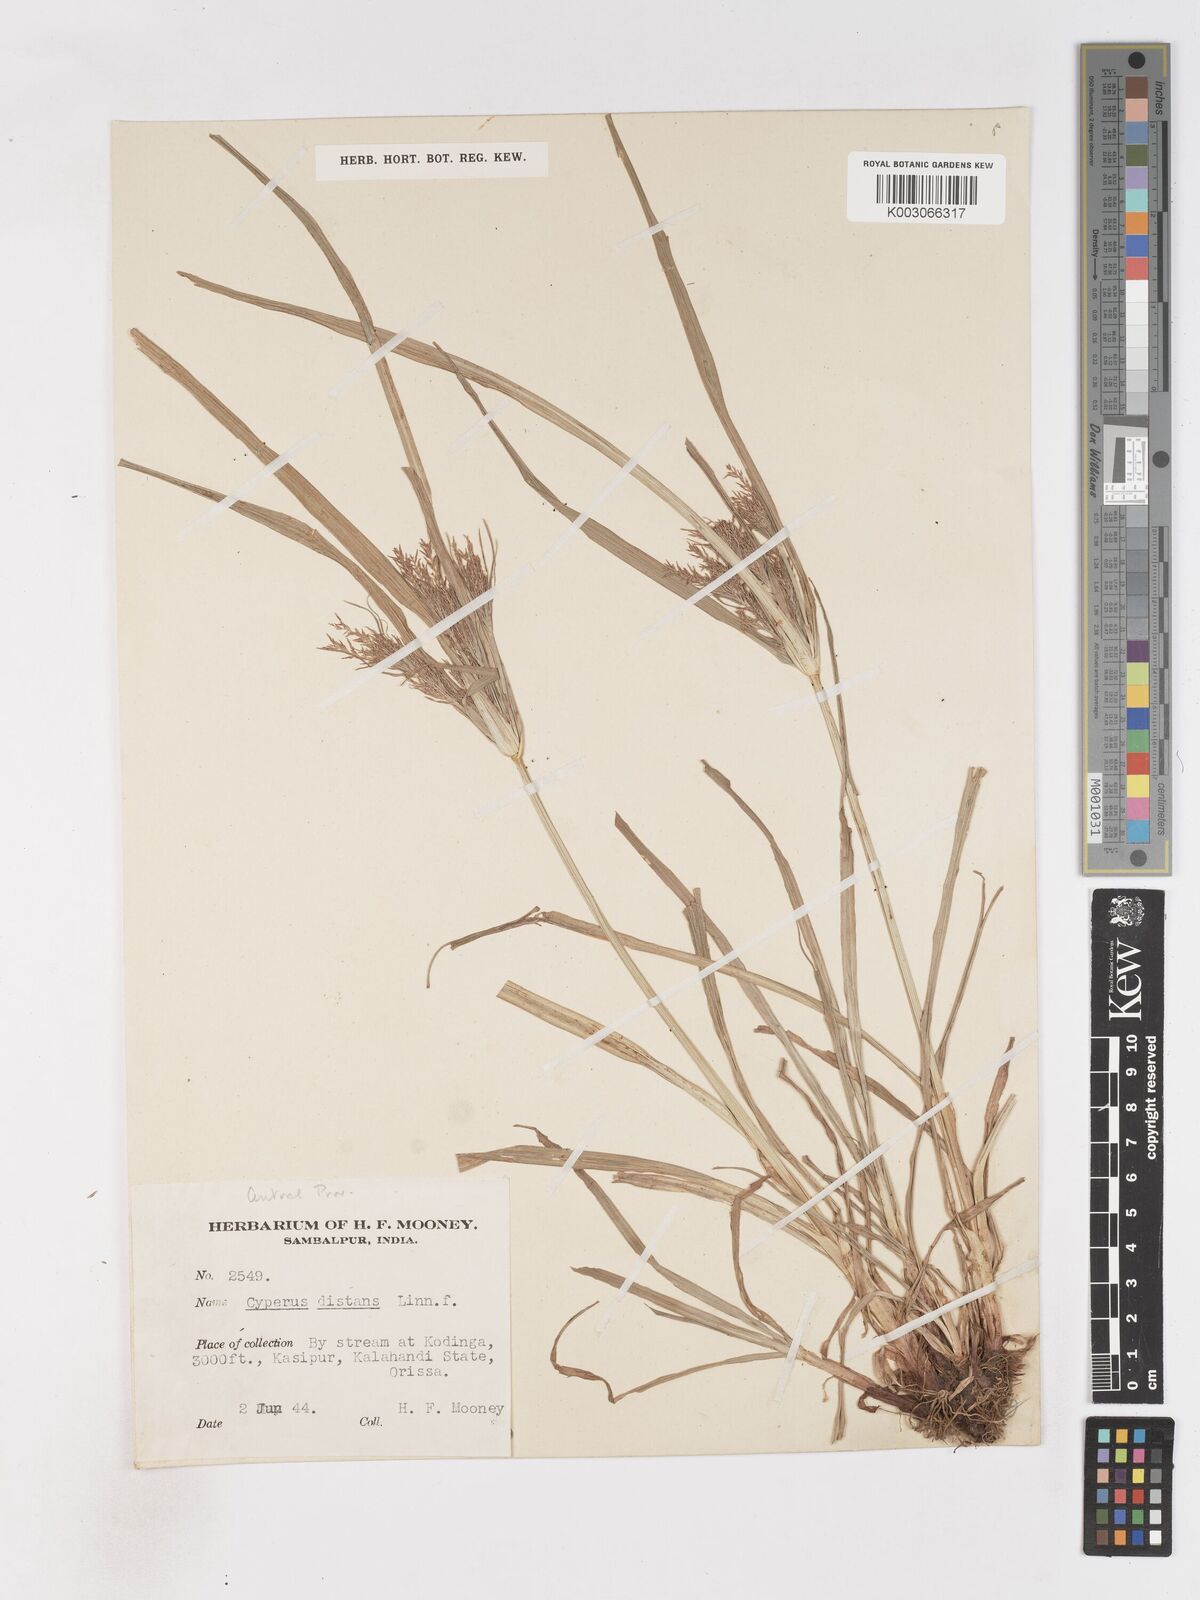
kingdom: Plantae
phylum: Tracheophyta
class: Liliopsida
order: Poales
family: Cyperaceae
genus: Cyperus
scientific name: Cyperus distans
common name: Slender cyperus
